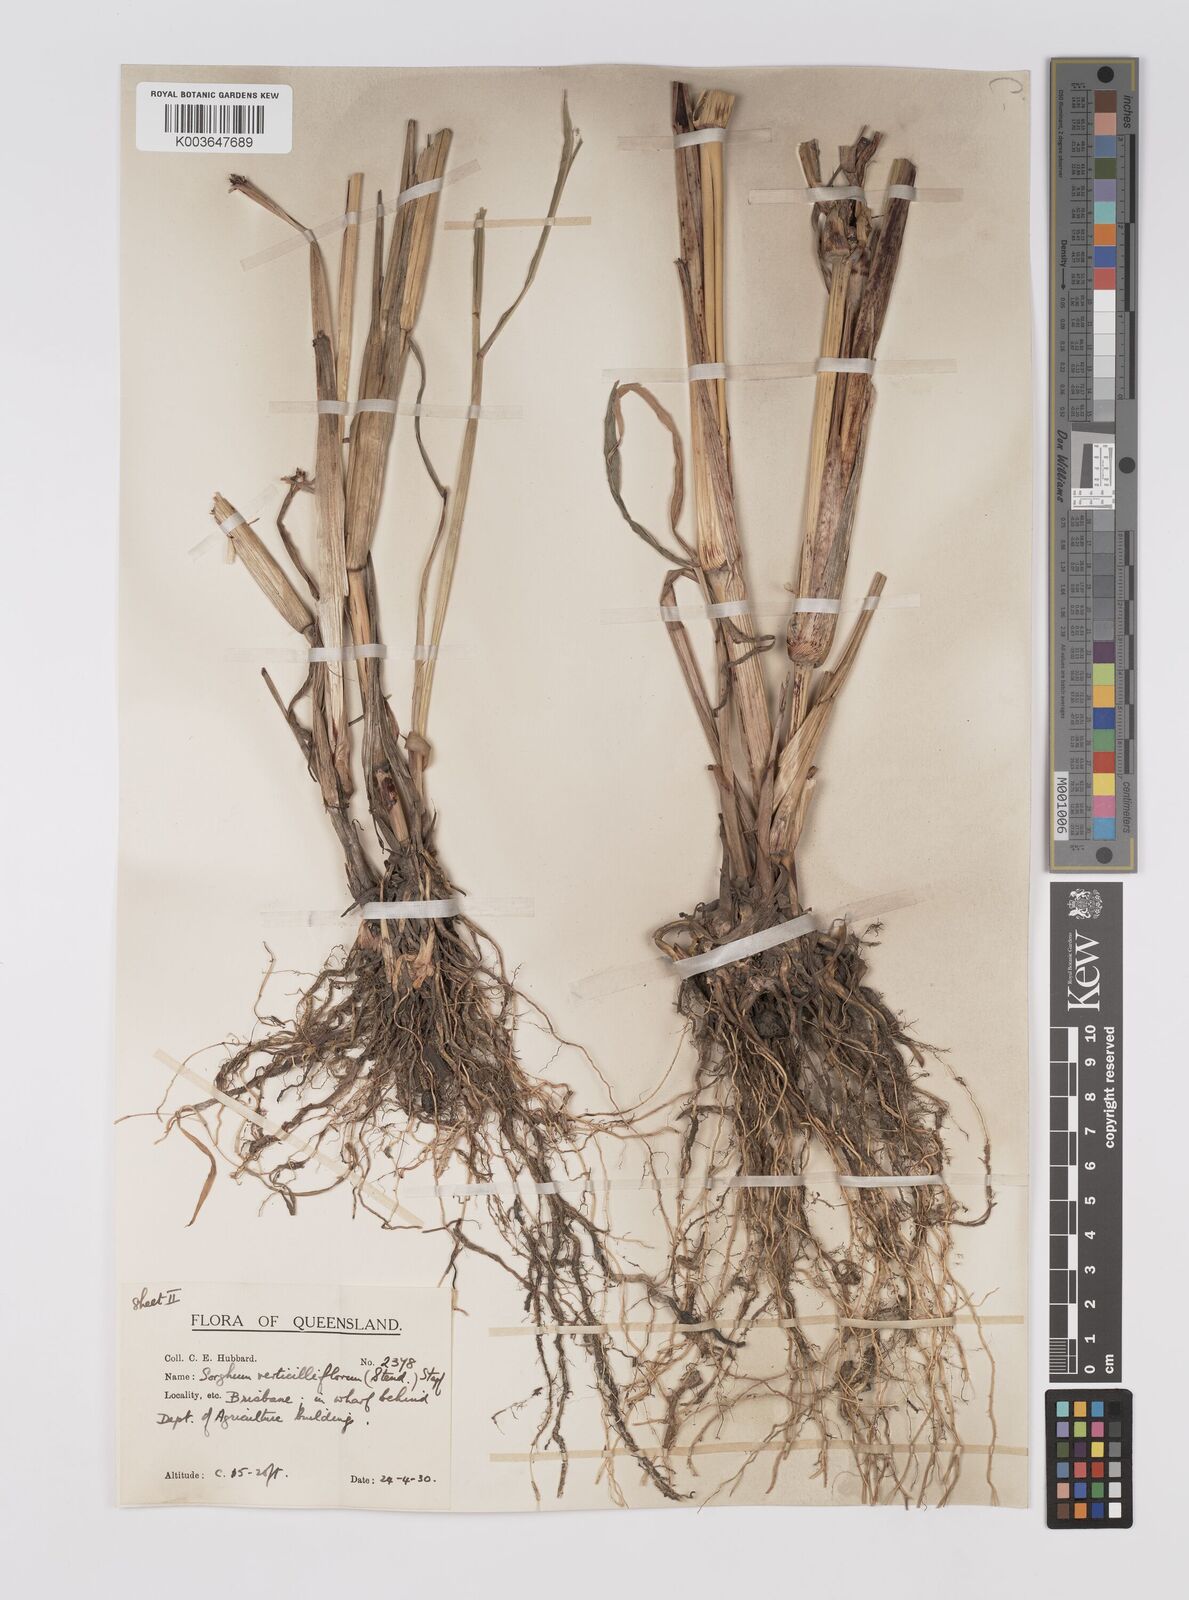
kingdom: Plantae
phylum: Tracheophyta
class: Liliopsida
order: Poales
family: Poaceae
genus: Sorghum
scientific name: Sorghum arundinaceum
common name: Sorghum
